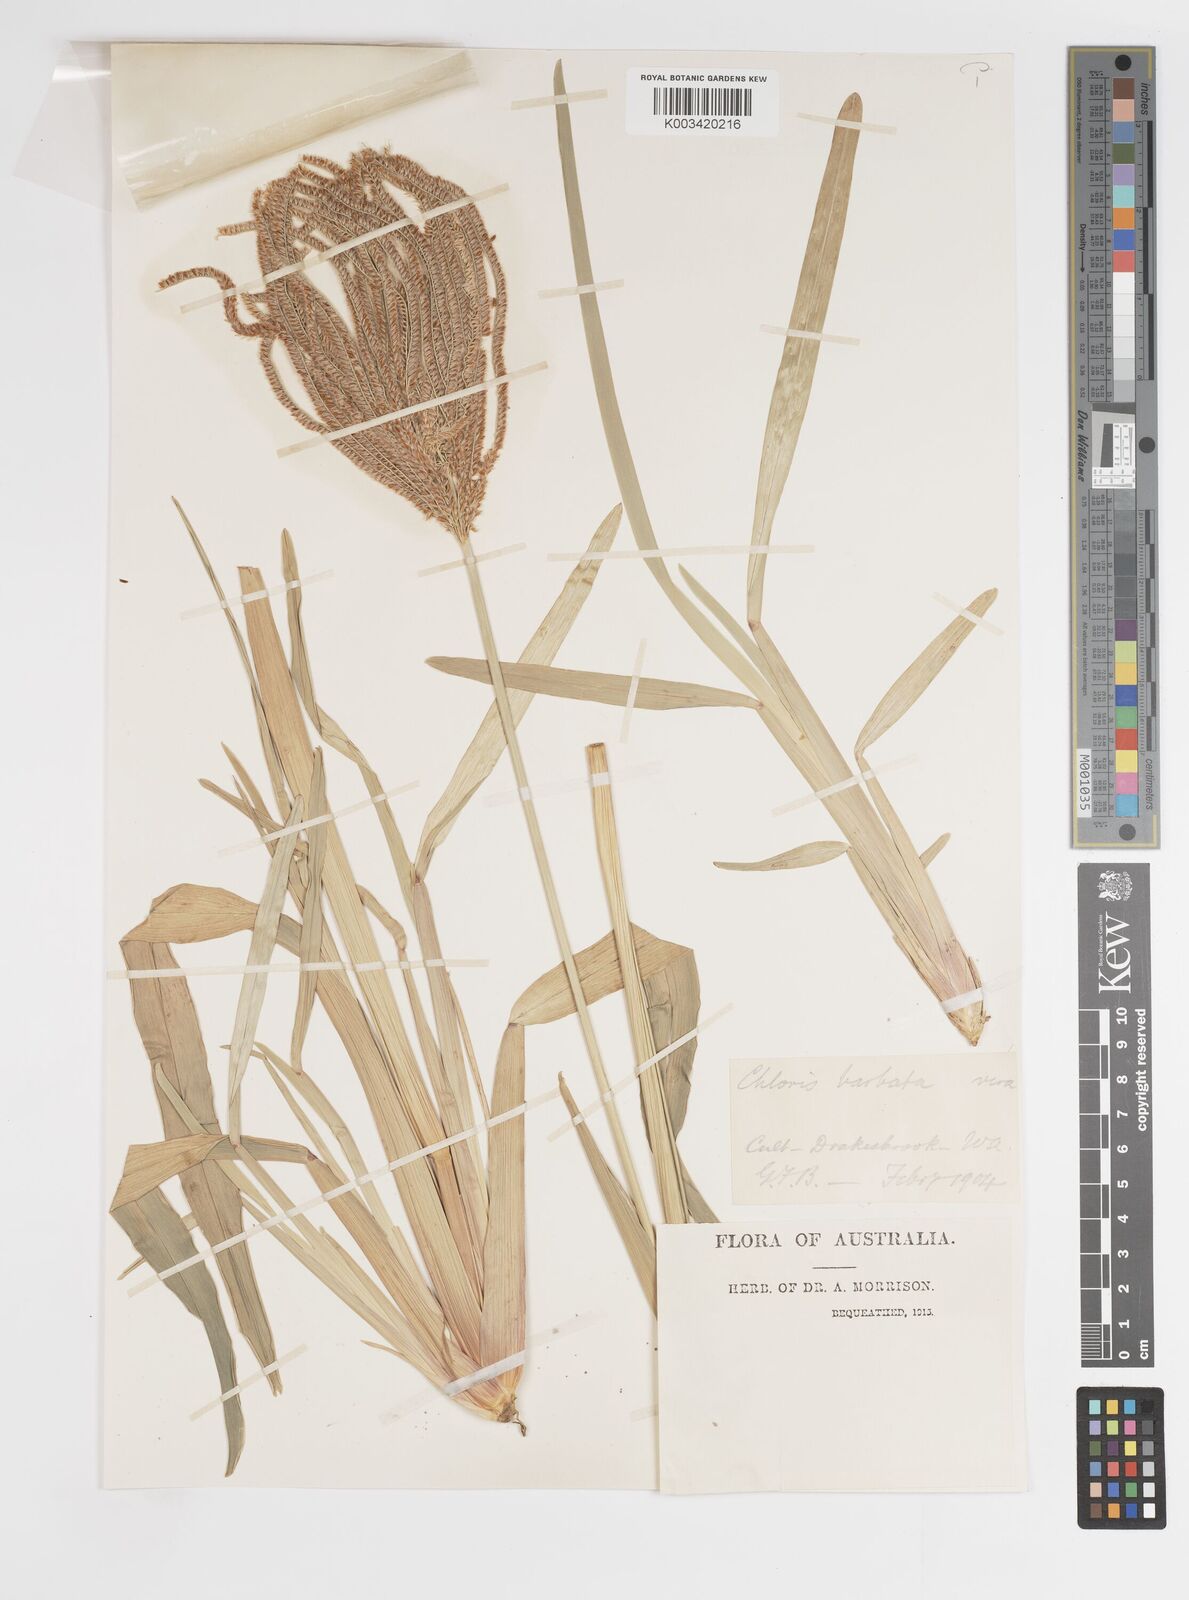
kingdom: Plantae
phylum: Tracheophyta
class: Liliopsida
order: Poales
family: Poaceae
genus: Eustachys
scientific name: Eustachys distichophylla
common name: Weeping fingergrass
